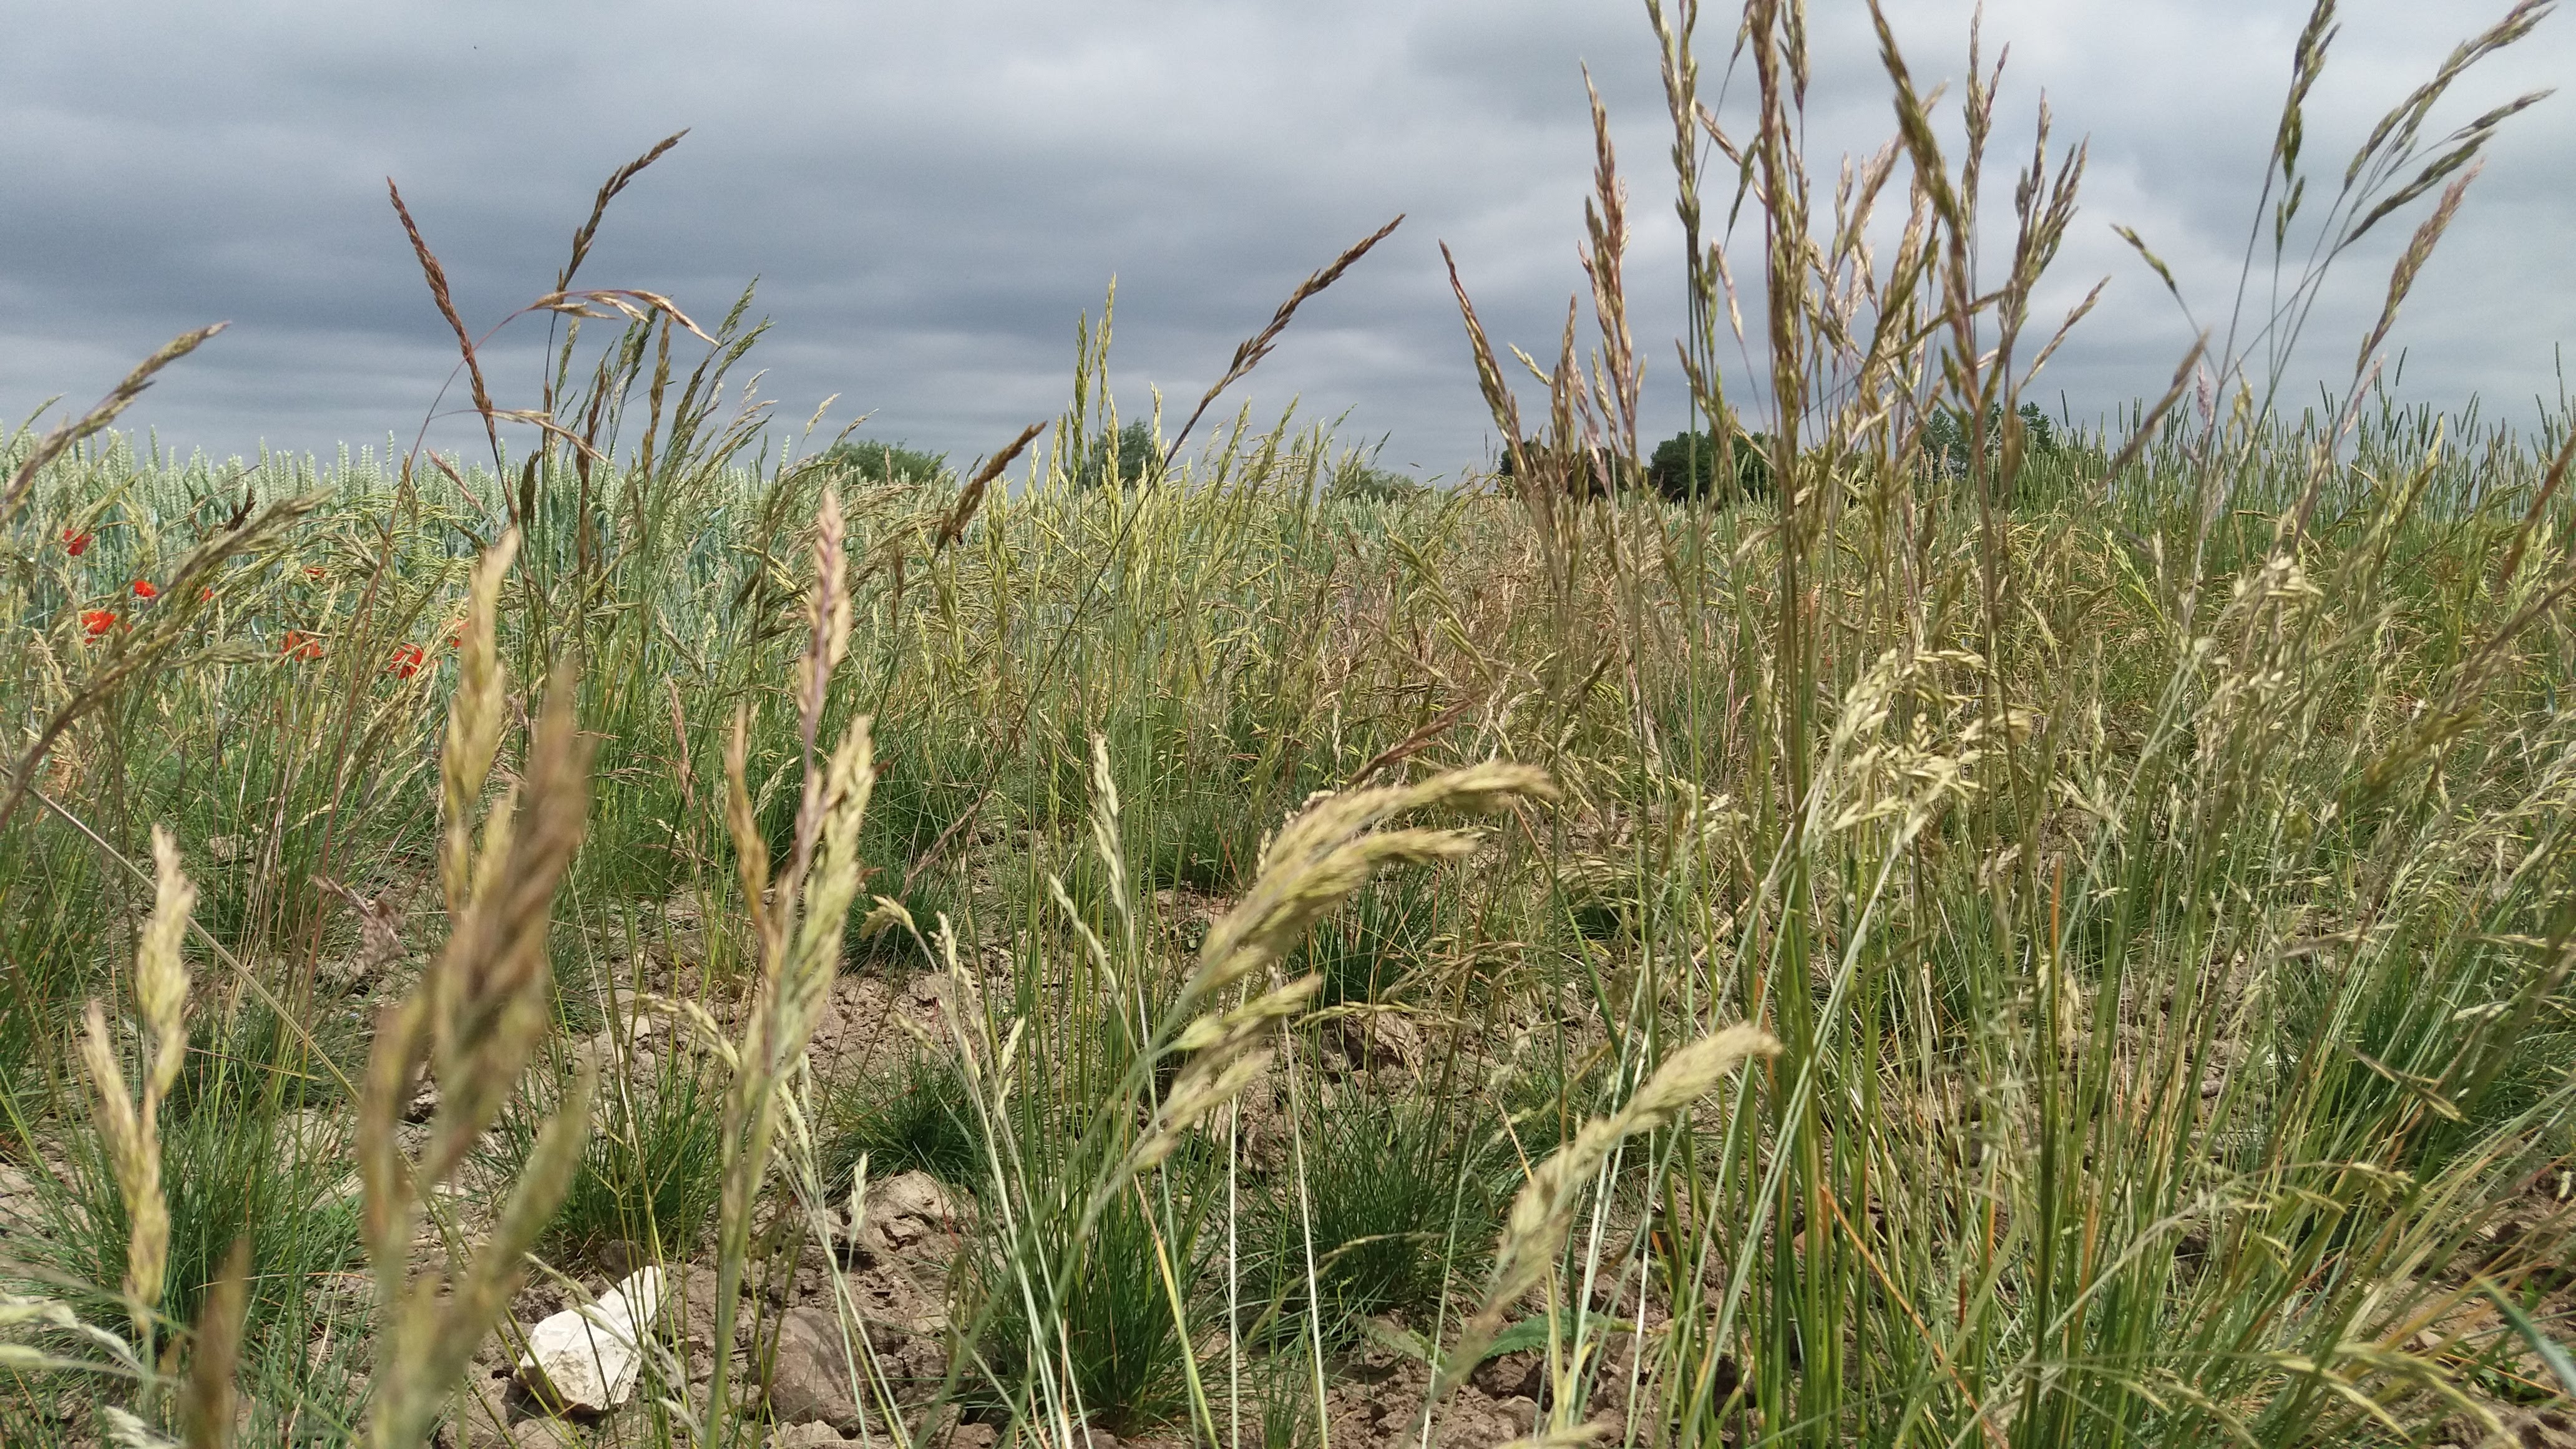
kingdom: Plantae
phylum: Tracheophyta
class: Liliopsida
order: Poales
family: Poaceae
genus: Festuca
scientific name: Festuca rubra
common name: Red fescue
